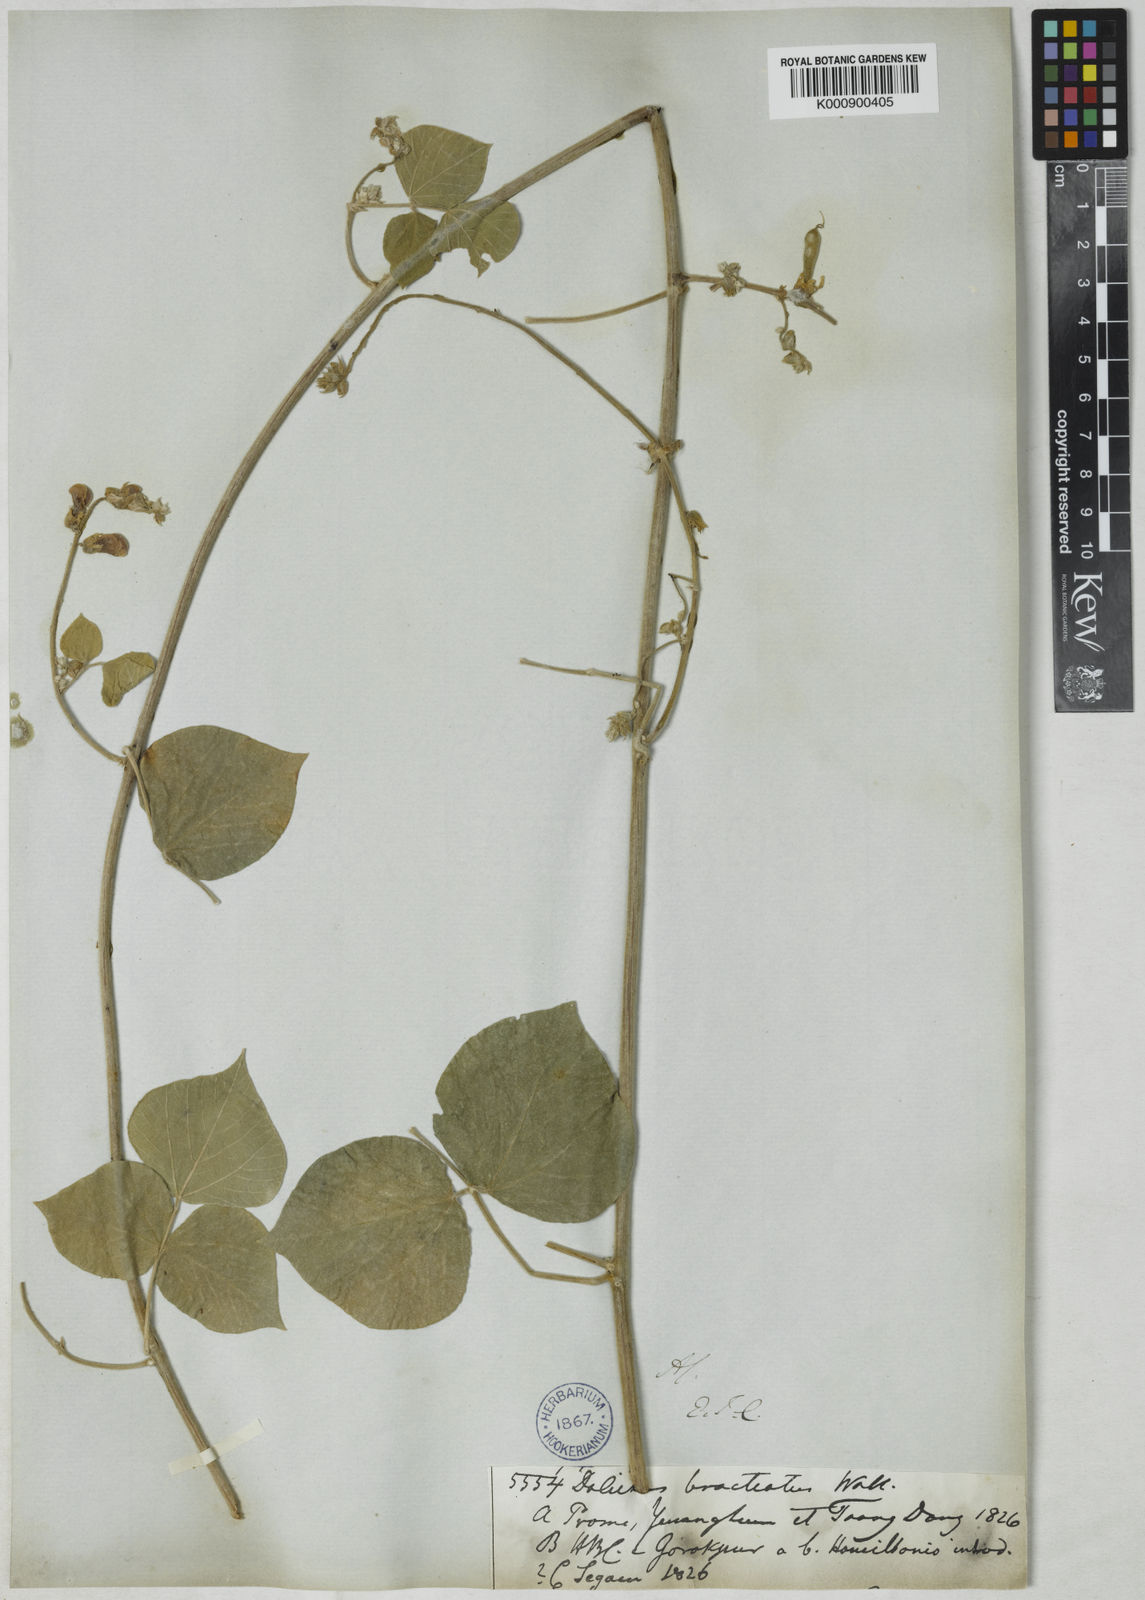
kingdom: Plantae
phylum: Tracheophyta
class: Magnoliopsida
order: Fabales
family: Fabaceae
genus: Rhynchosia
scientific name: Rhynchosia bracteata
